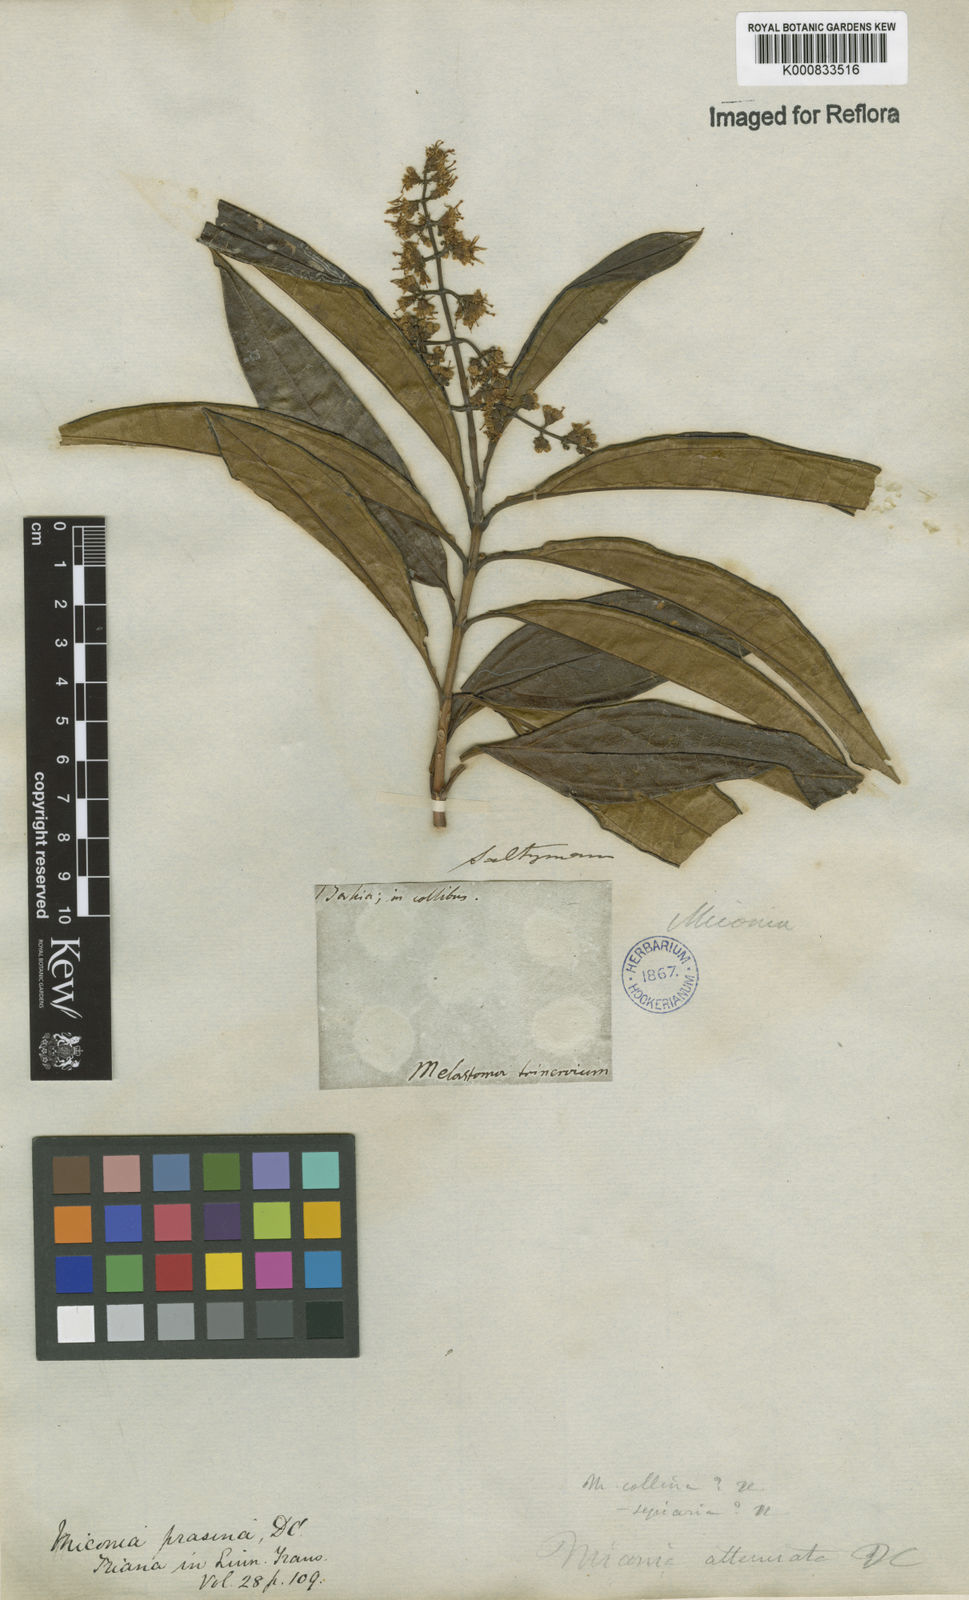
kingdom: Plantae
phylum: Tracheophyta
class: Magnoliopsida
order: Myrtales
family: Melastomataceae
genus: Miconia
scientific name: Miconia prasina
